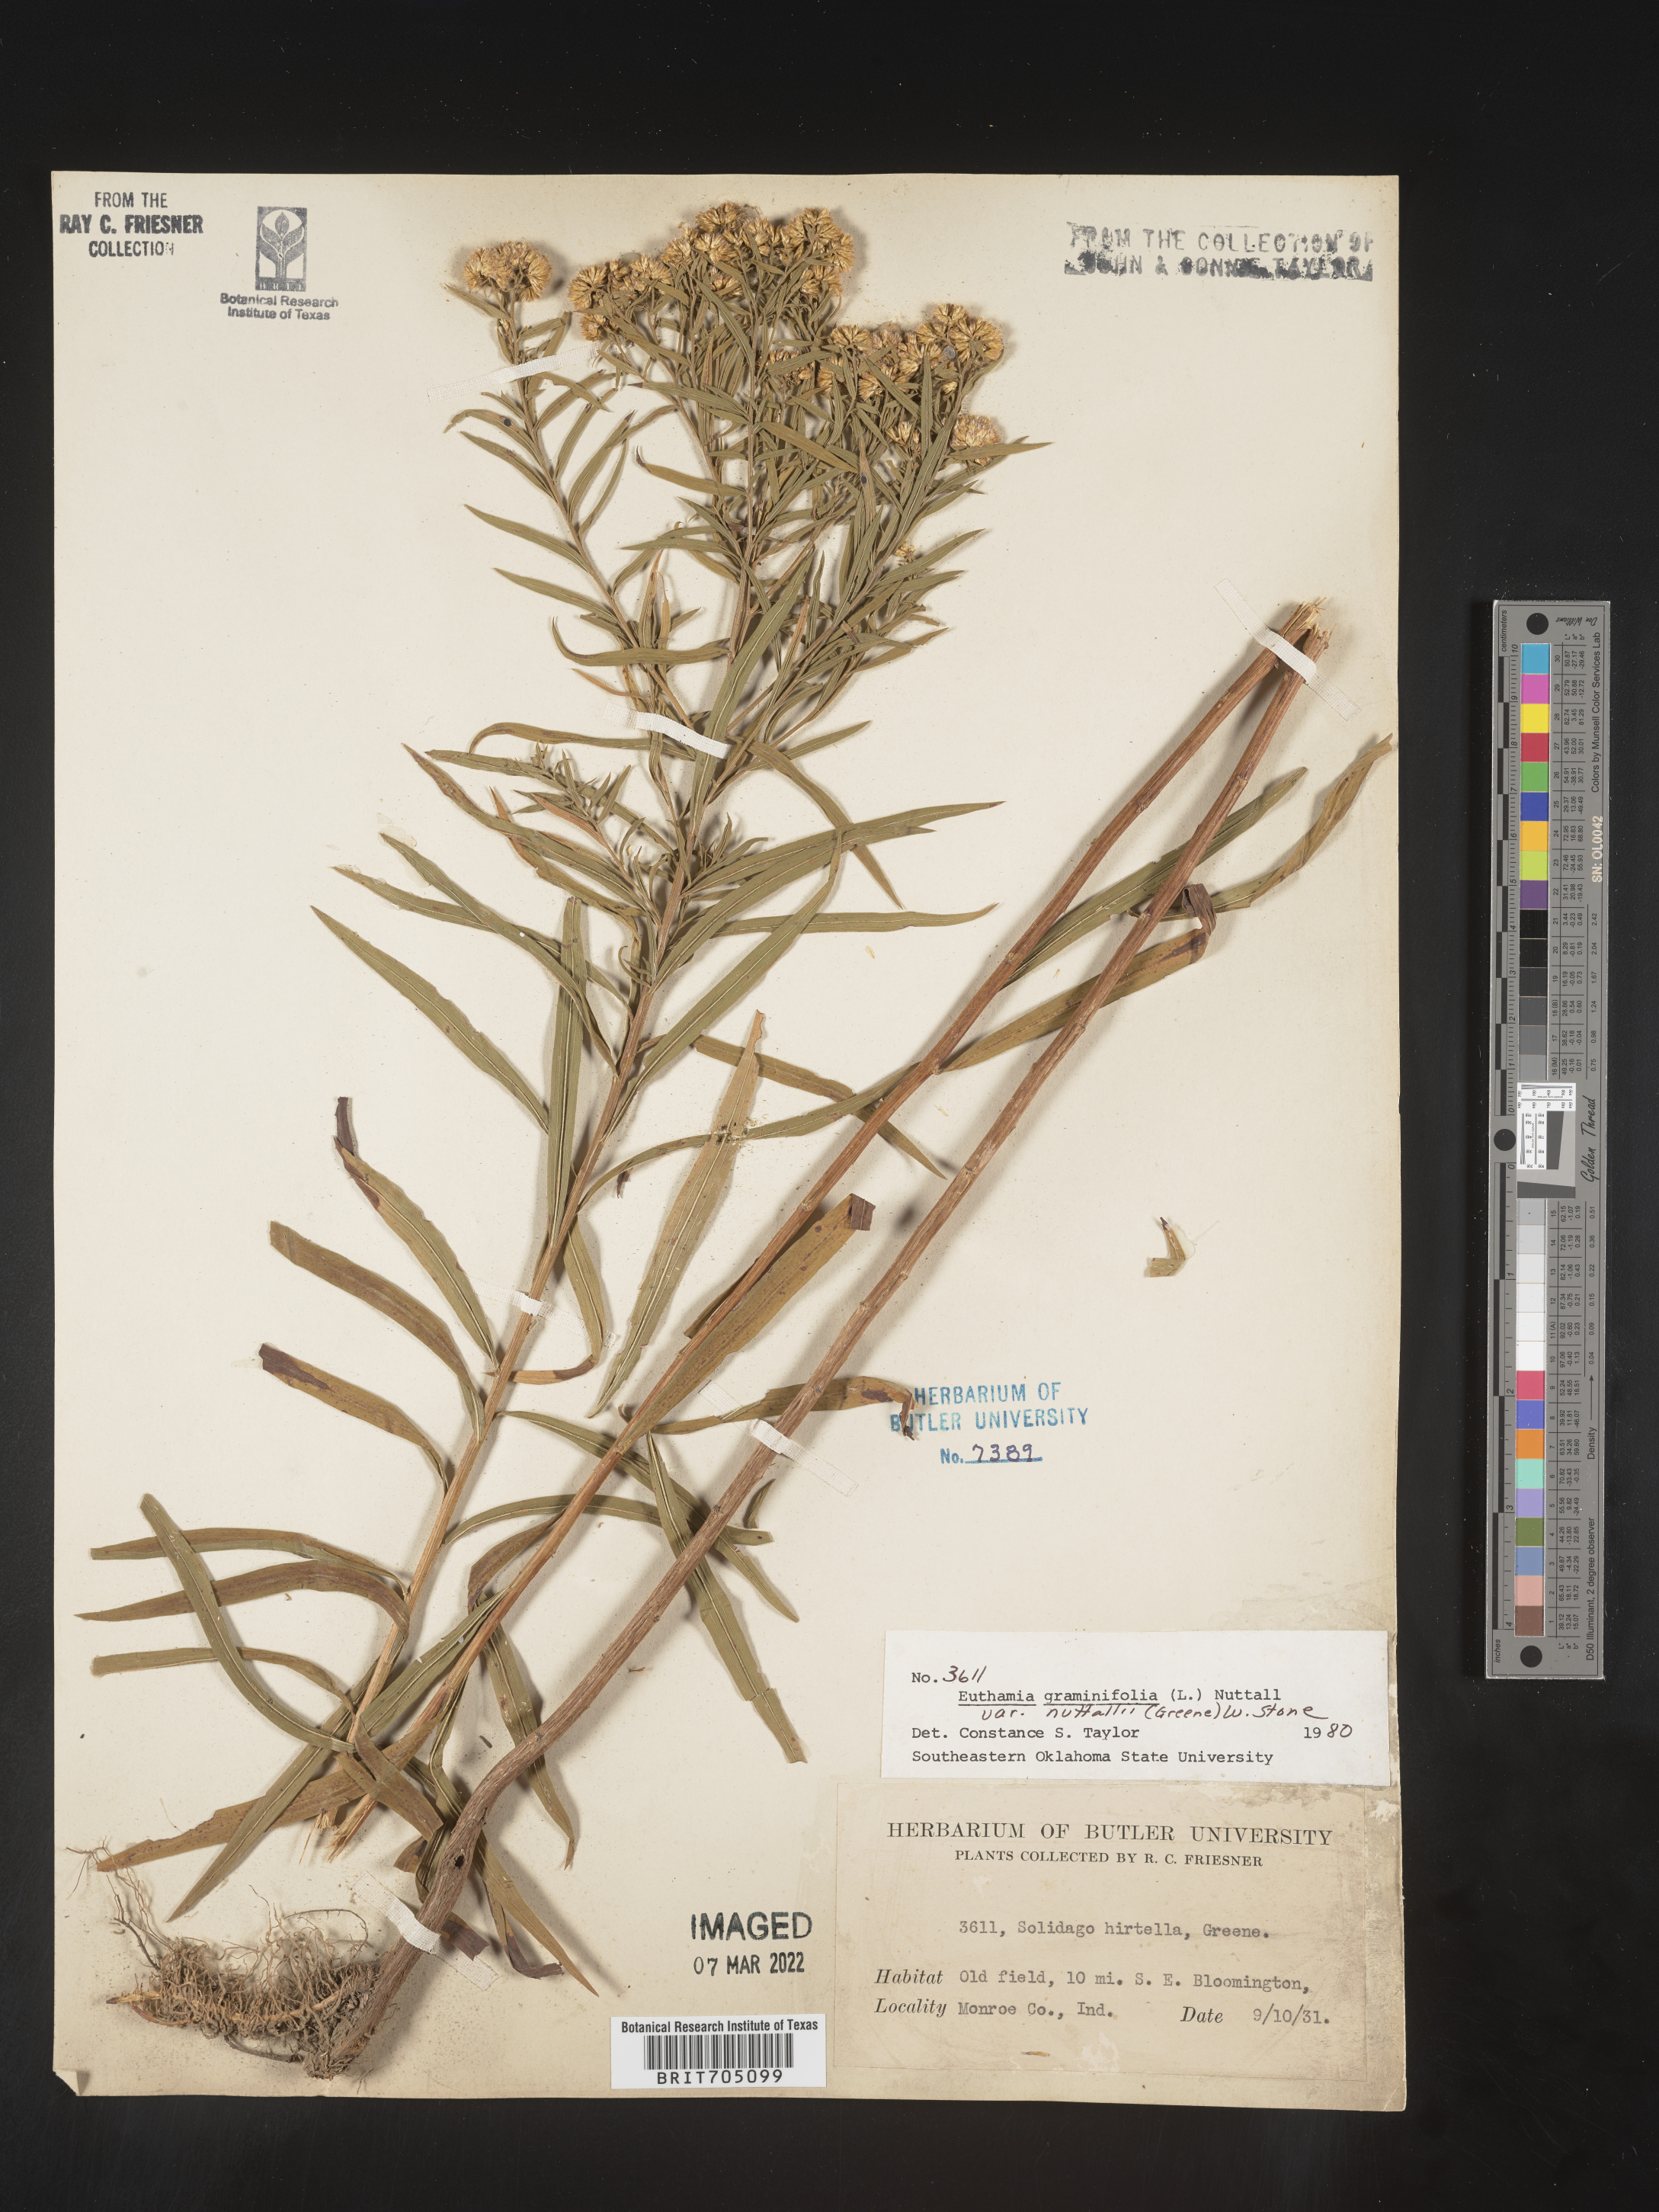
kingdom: Plantae
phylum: Tracheophyta
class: Magnoliopsida
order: Asterales
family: Asteraceae
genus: Euthamia
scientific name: Euthamia graminifolia
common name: Common goldentop
